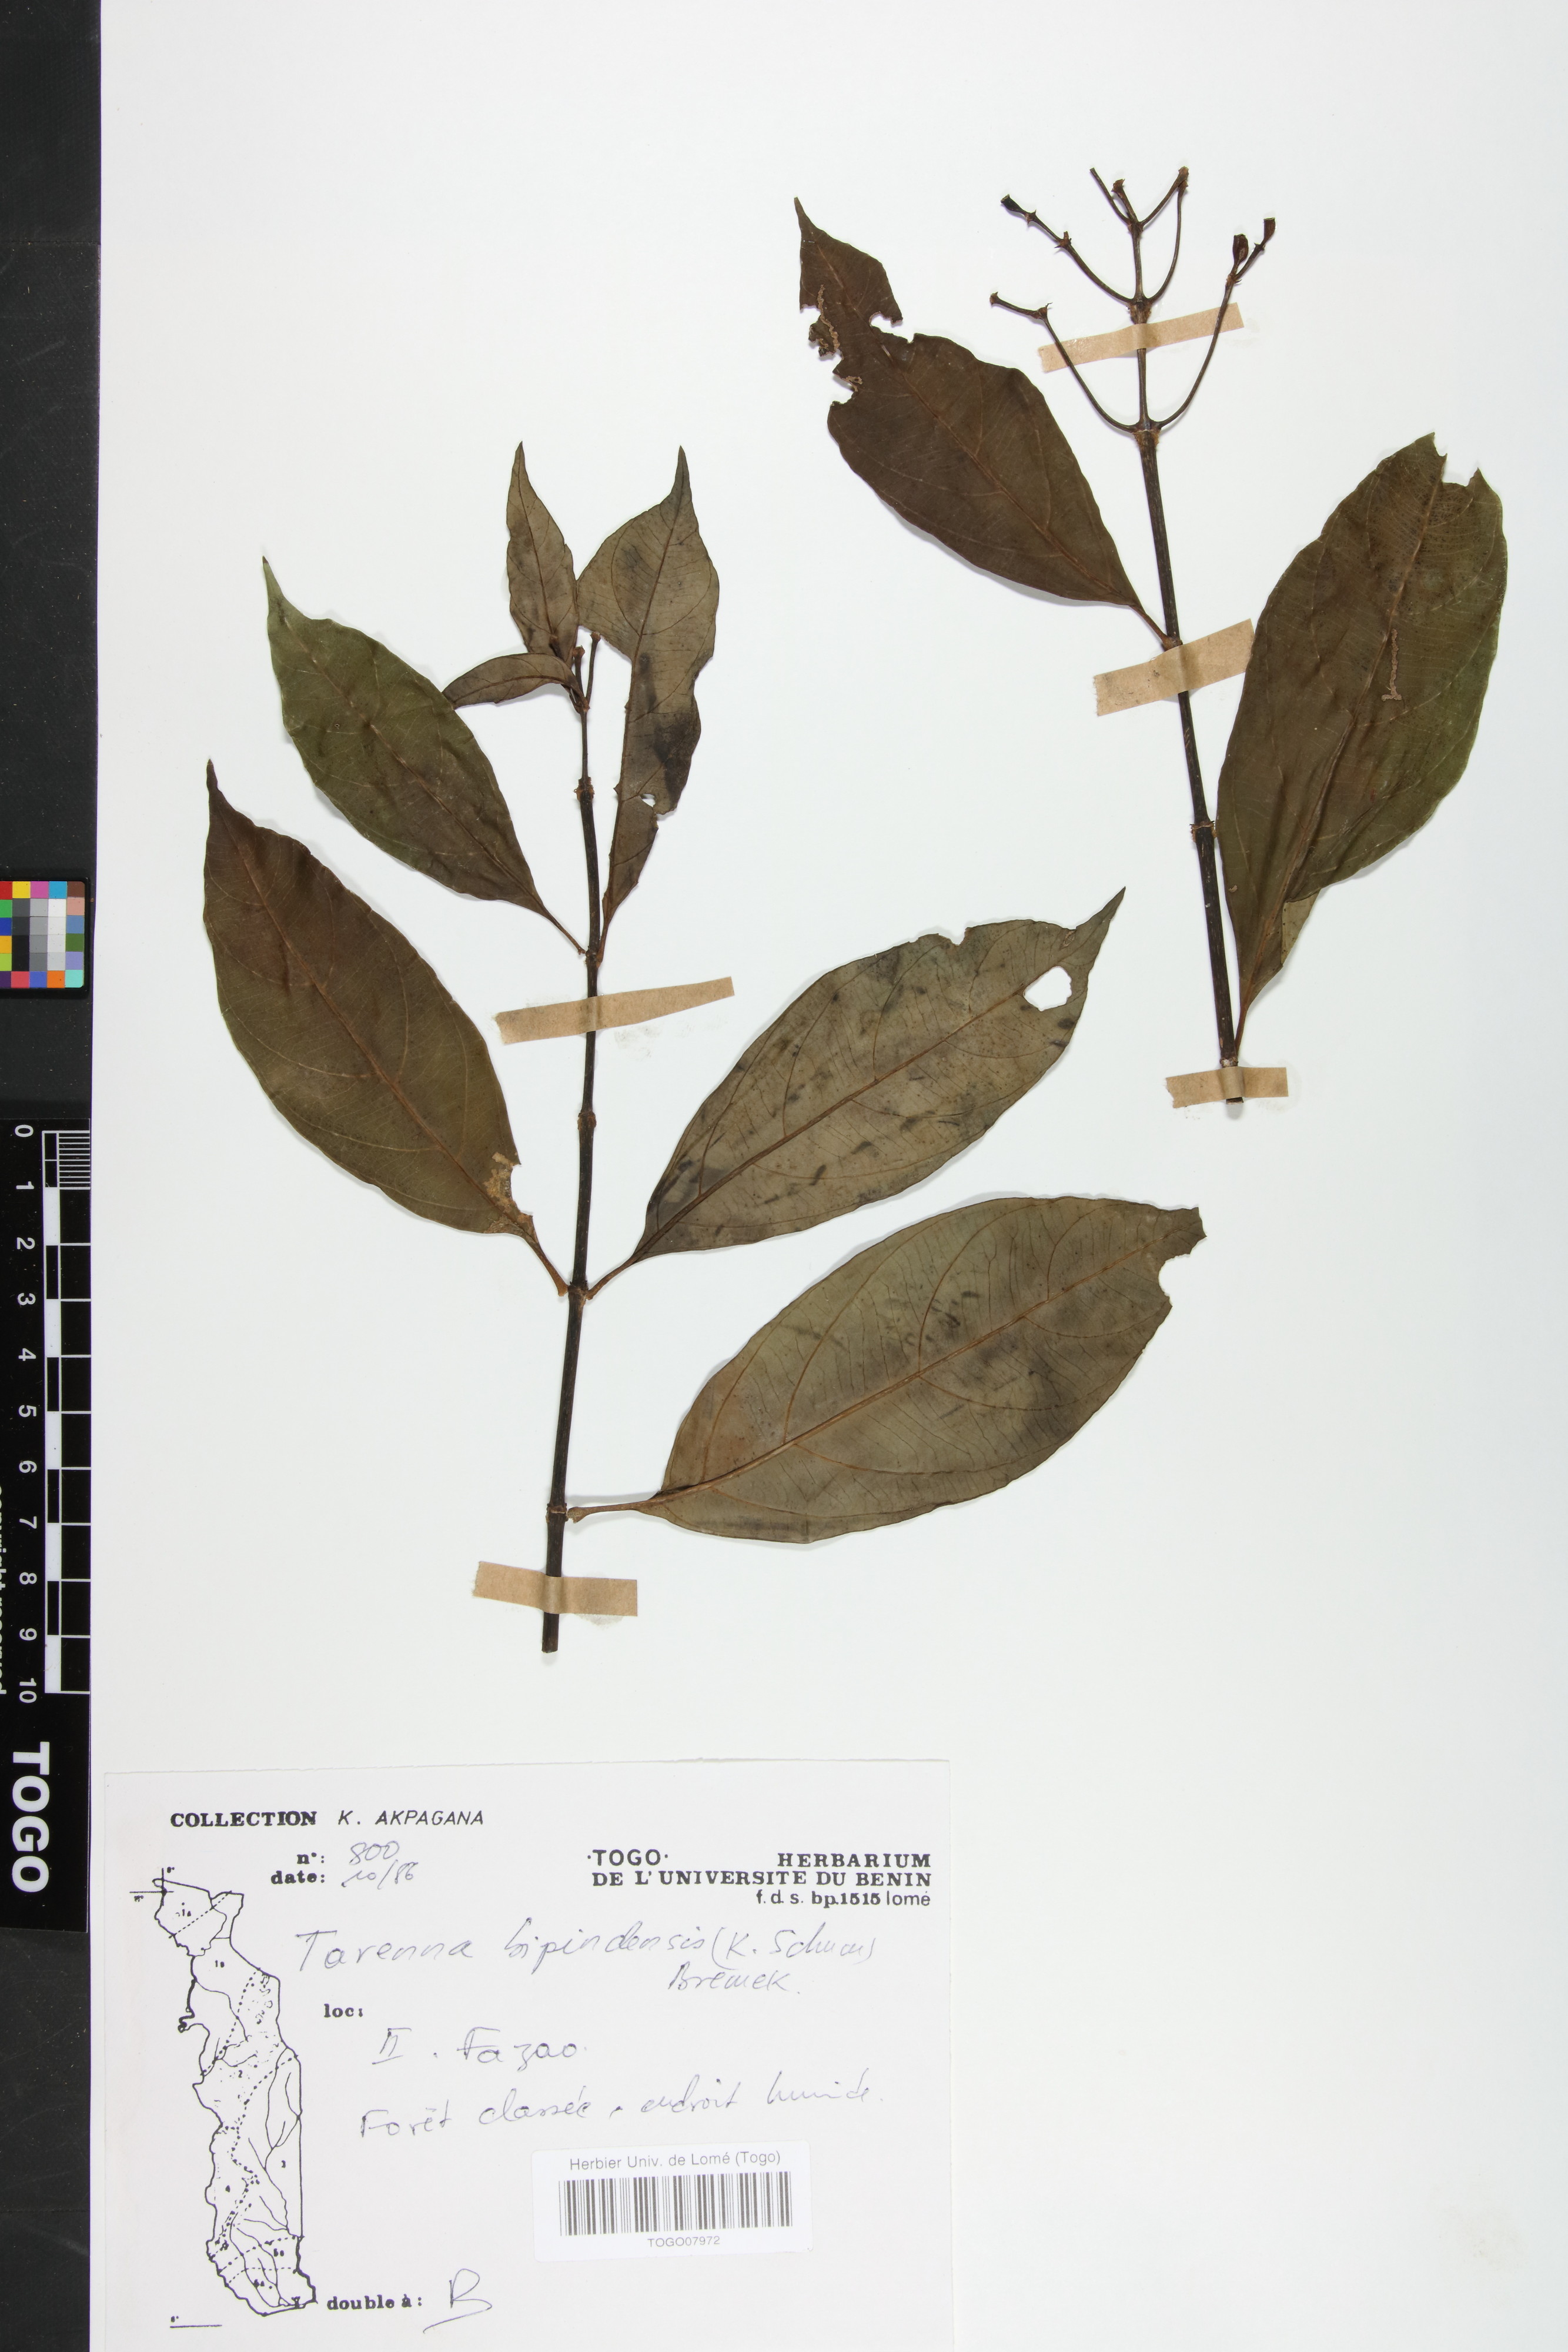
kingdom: Plantae
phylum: Tracheophyta
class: Magnoliopsida
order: Gentianales
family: Rubiaceae
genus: Tarenna
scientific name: Tarenna bipindensis
